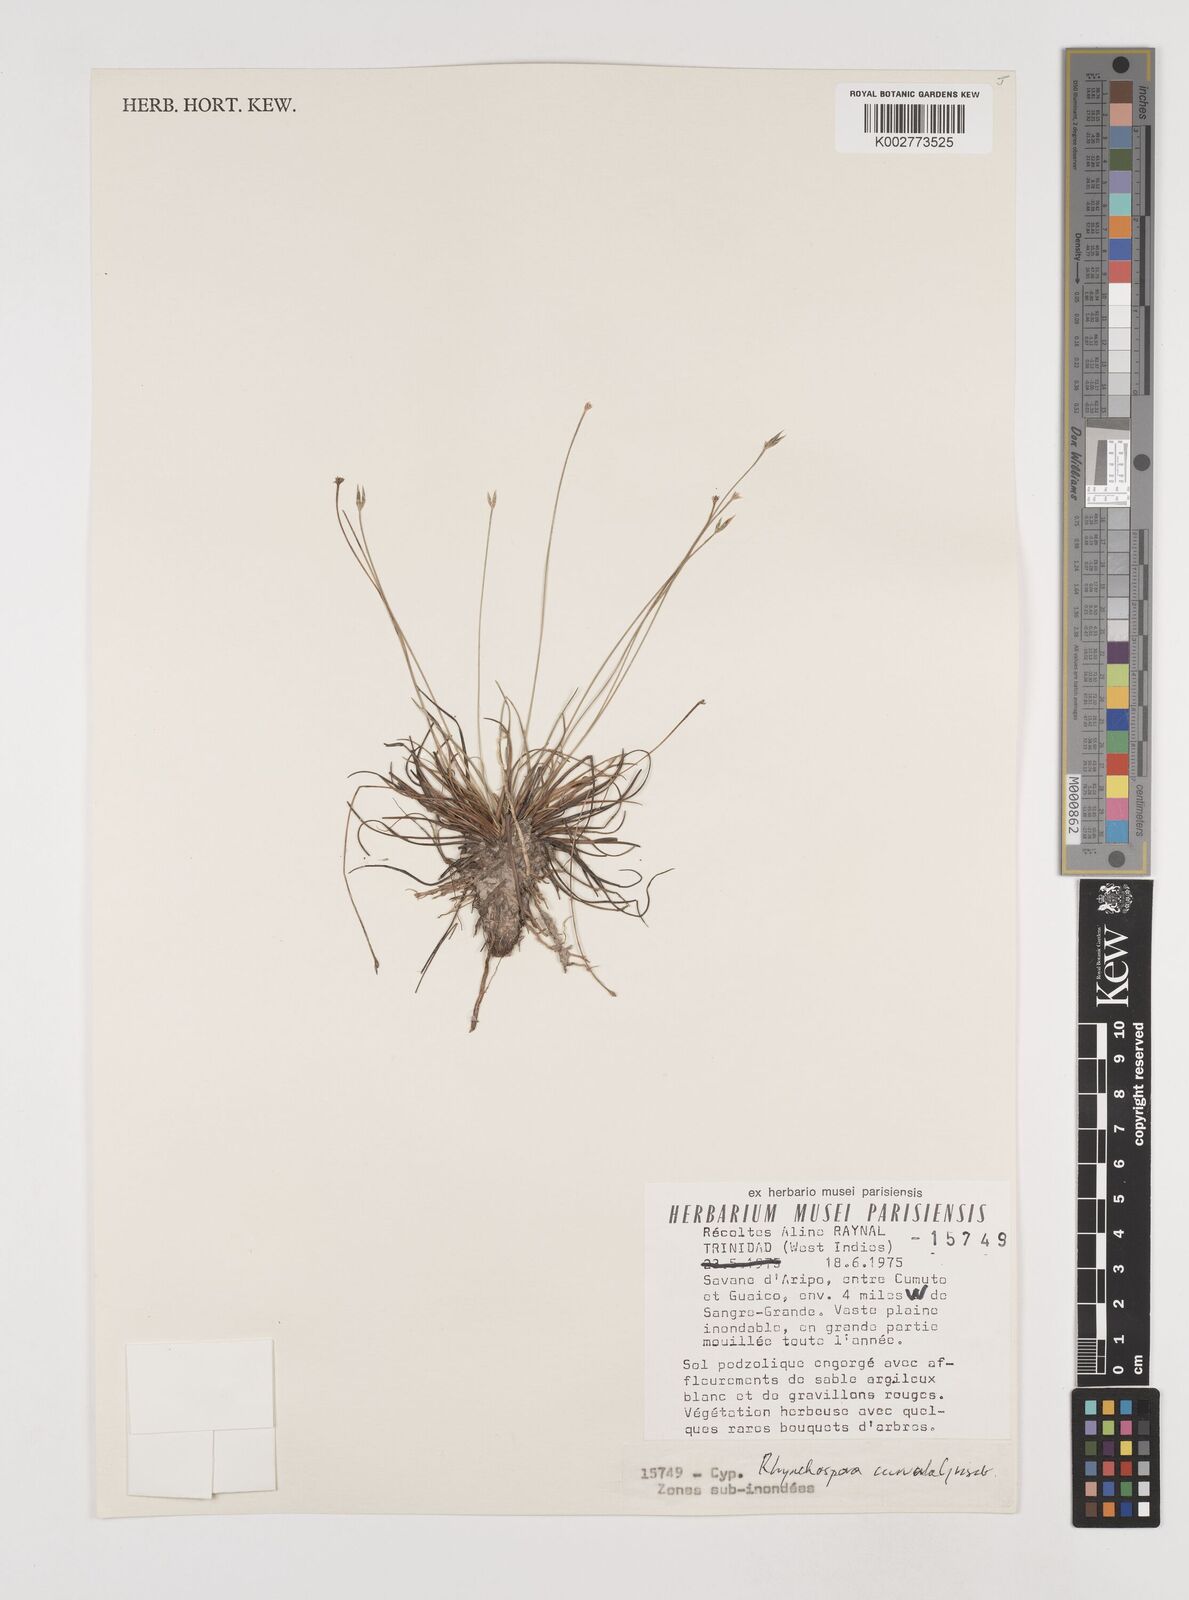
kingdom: Plantae
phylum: Tracheophyta
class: Liliopsida
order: Poales
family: Cyperaceae
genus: Rhynchospora
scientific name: Rhynchospora tenuis
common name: Quill beaksedge
